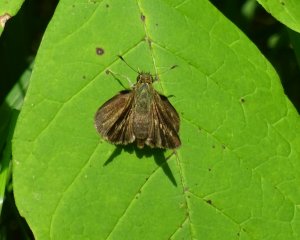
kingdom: Animalia
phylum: Arthropoda
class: Insecta
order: Lepidoptera
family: Hesperiidae
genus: Polites
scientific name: Polites egeremet
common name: Northern Broken-Dash
